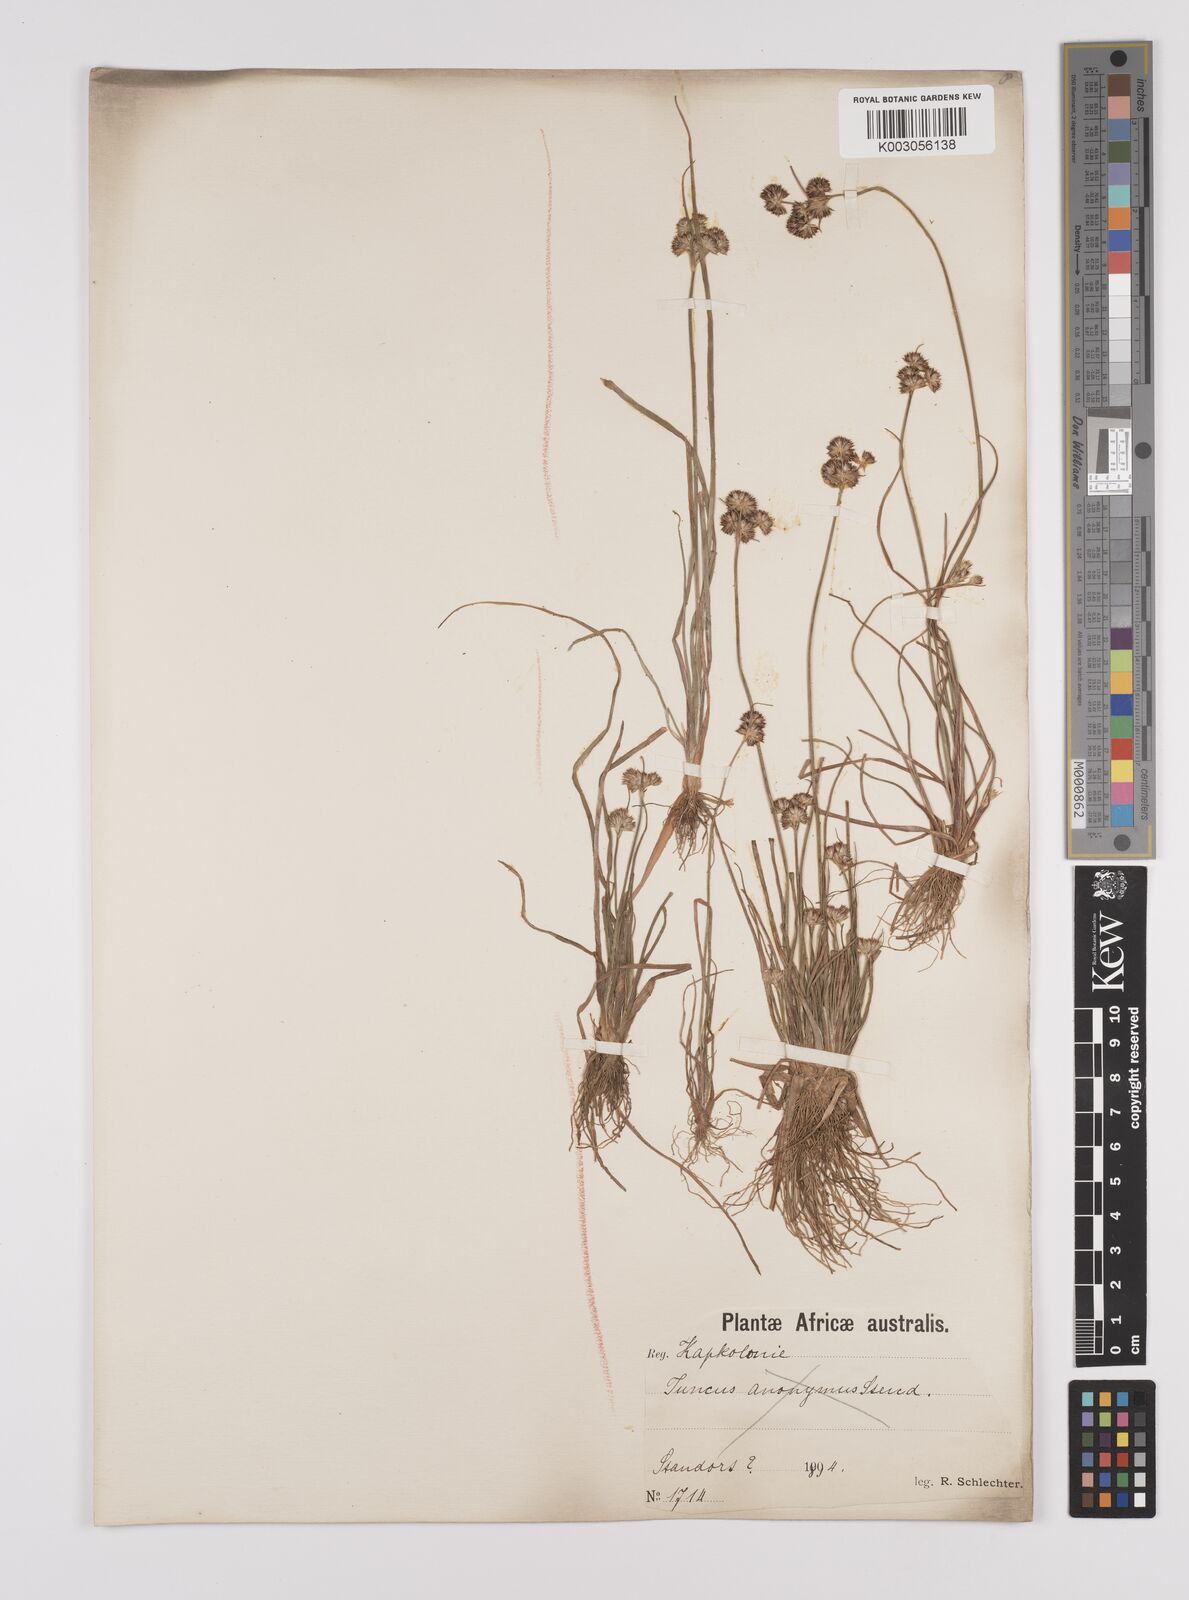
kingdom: Plantae
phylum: Tracheophyta
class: Liliopsida
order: Poales
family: Juncaceae
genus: Juncus
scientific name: Juncus
